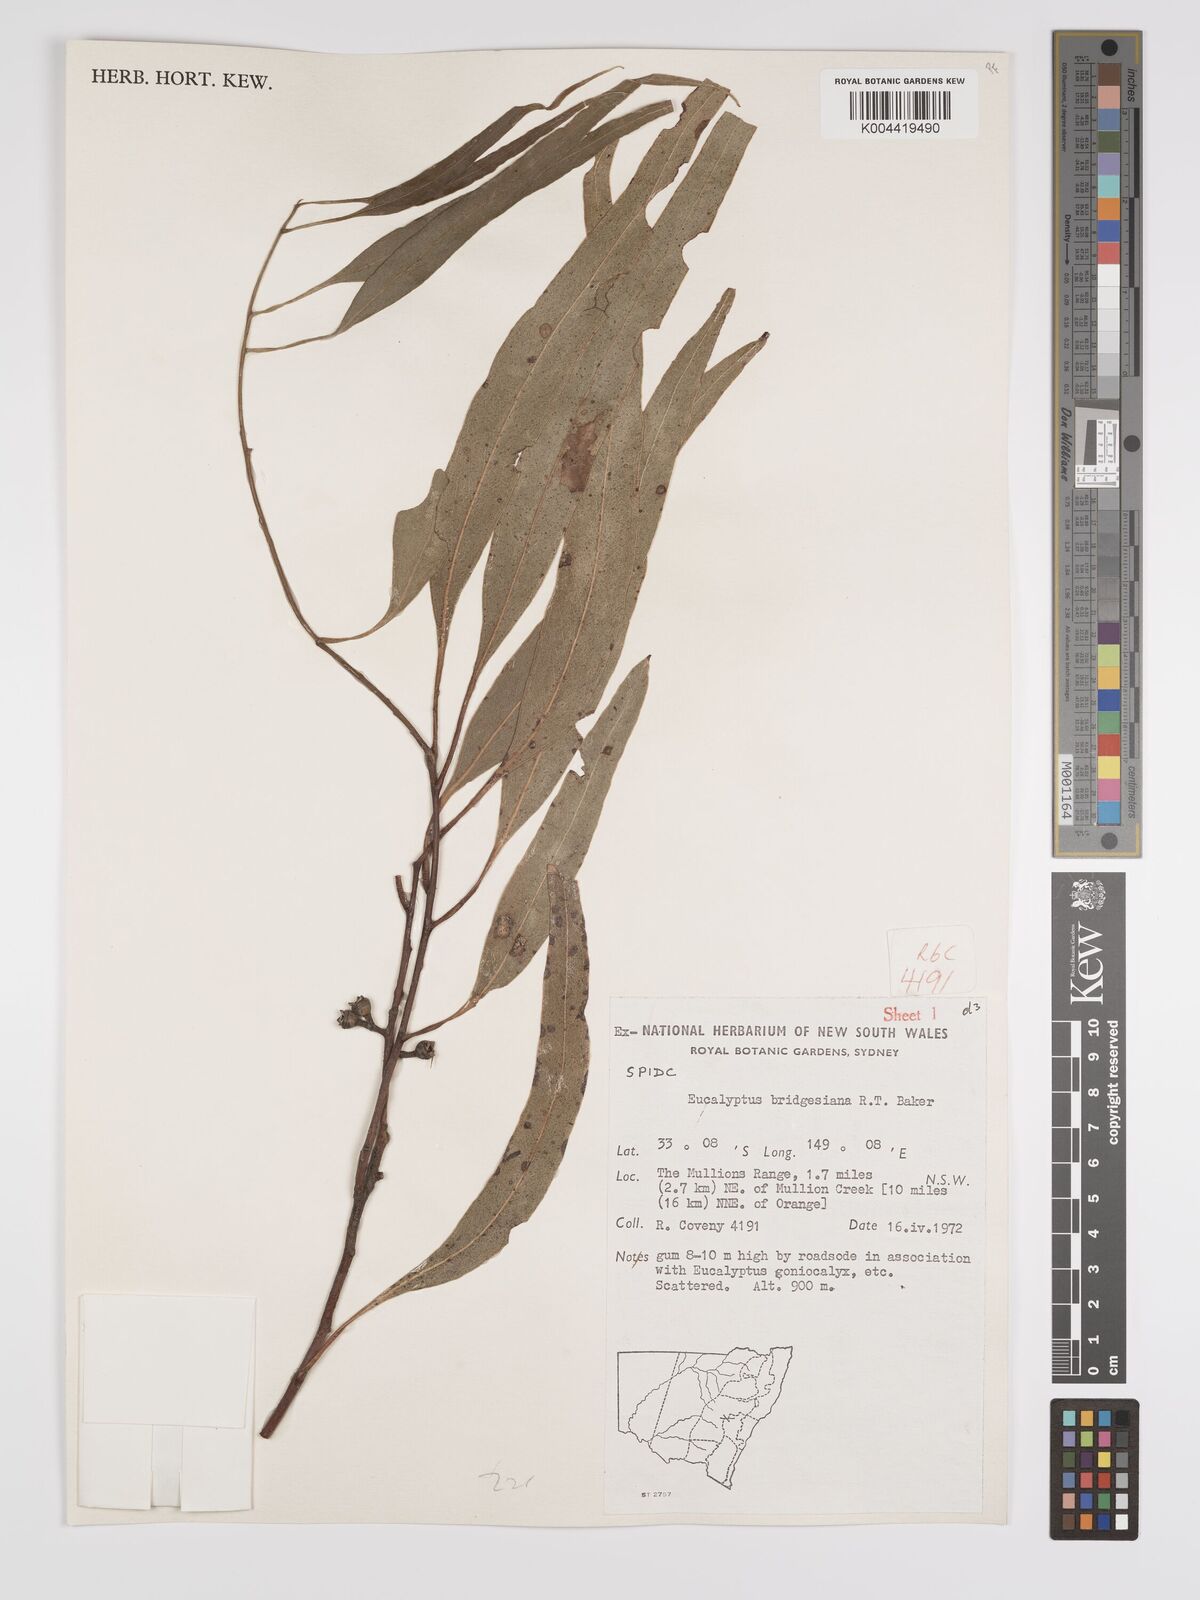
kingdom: Plantae
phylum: Tracheophyta
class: Magnoliopsida
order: Myrtales
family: Myrtaceae
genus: Eucalyptus
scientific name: Eucalyptus bridgesiana
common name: Applebox
